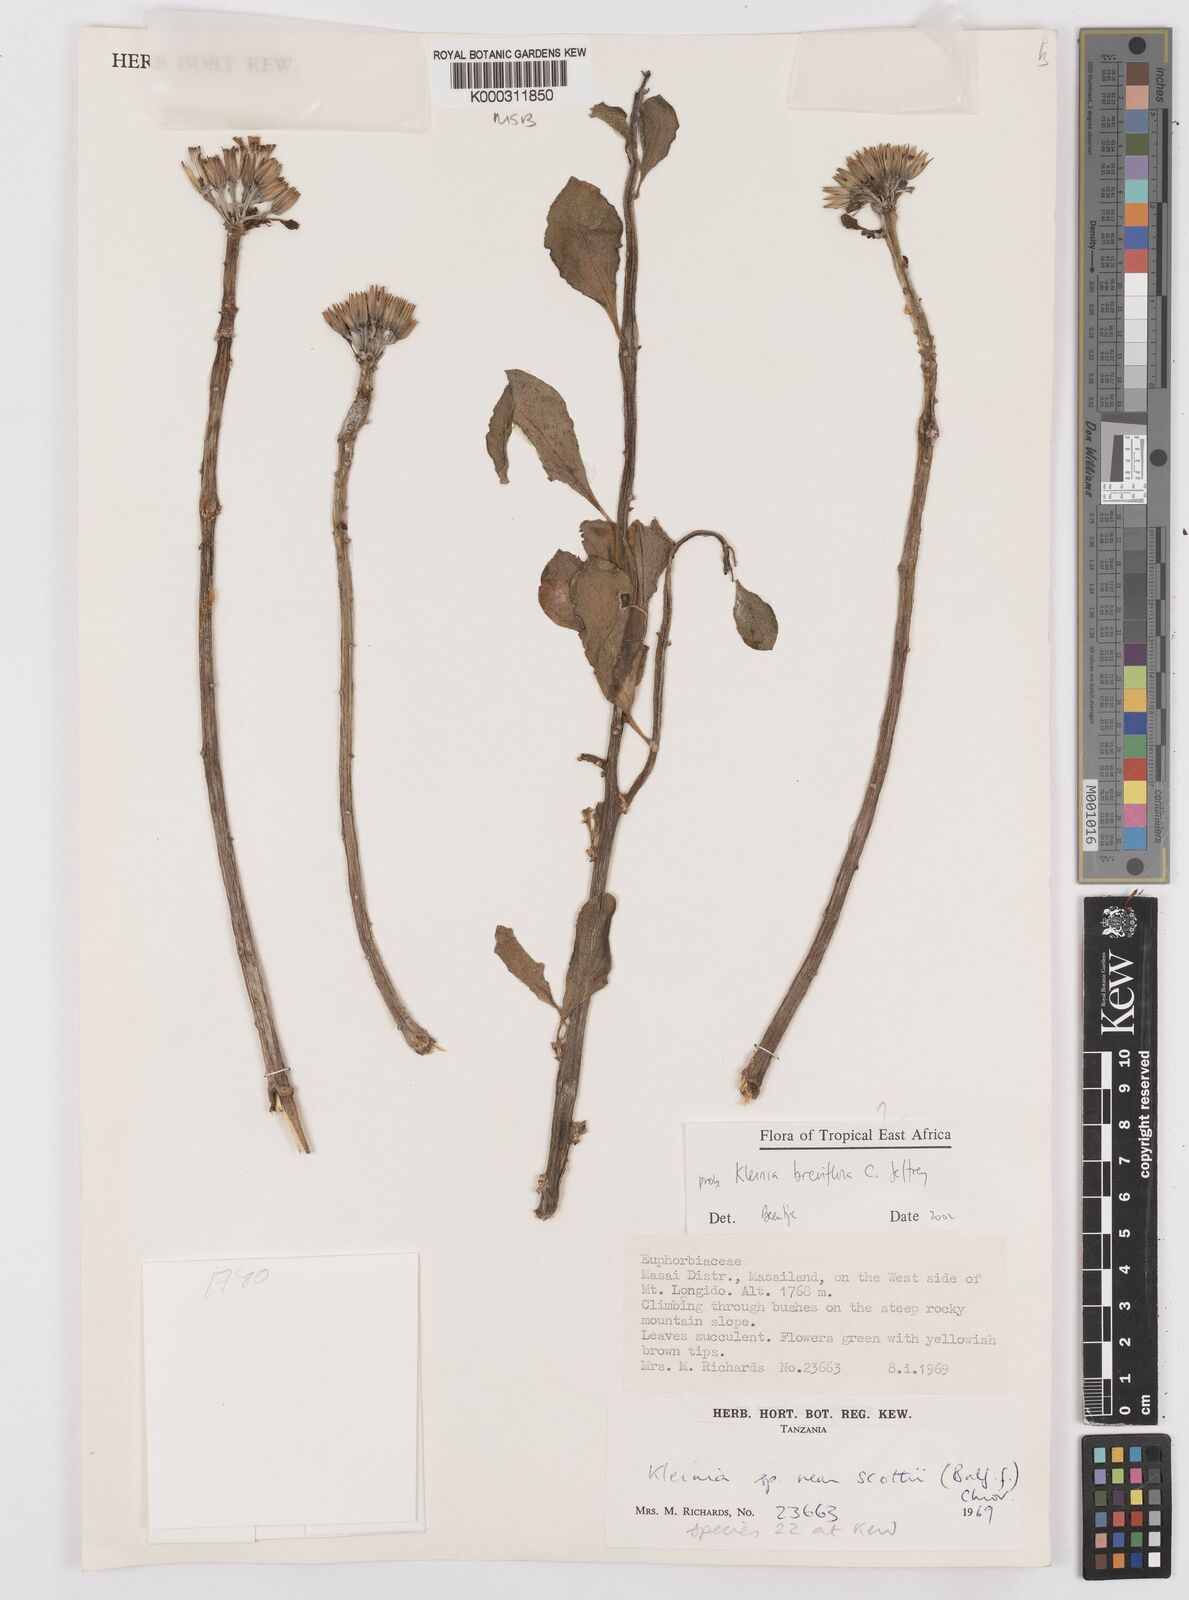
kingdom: Plantae
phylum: Tracheophyta
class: Magnoliopsida
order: Asterales
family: Asteraceae
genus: Kleinia
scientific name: Kleinia polycotoma
